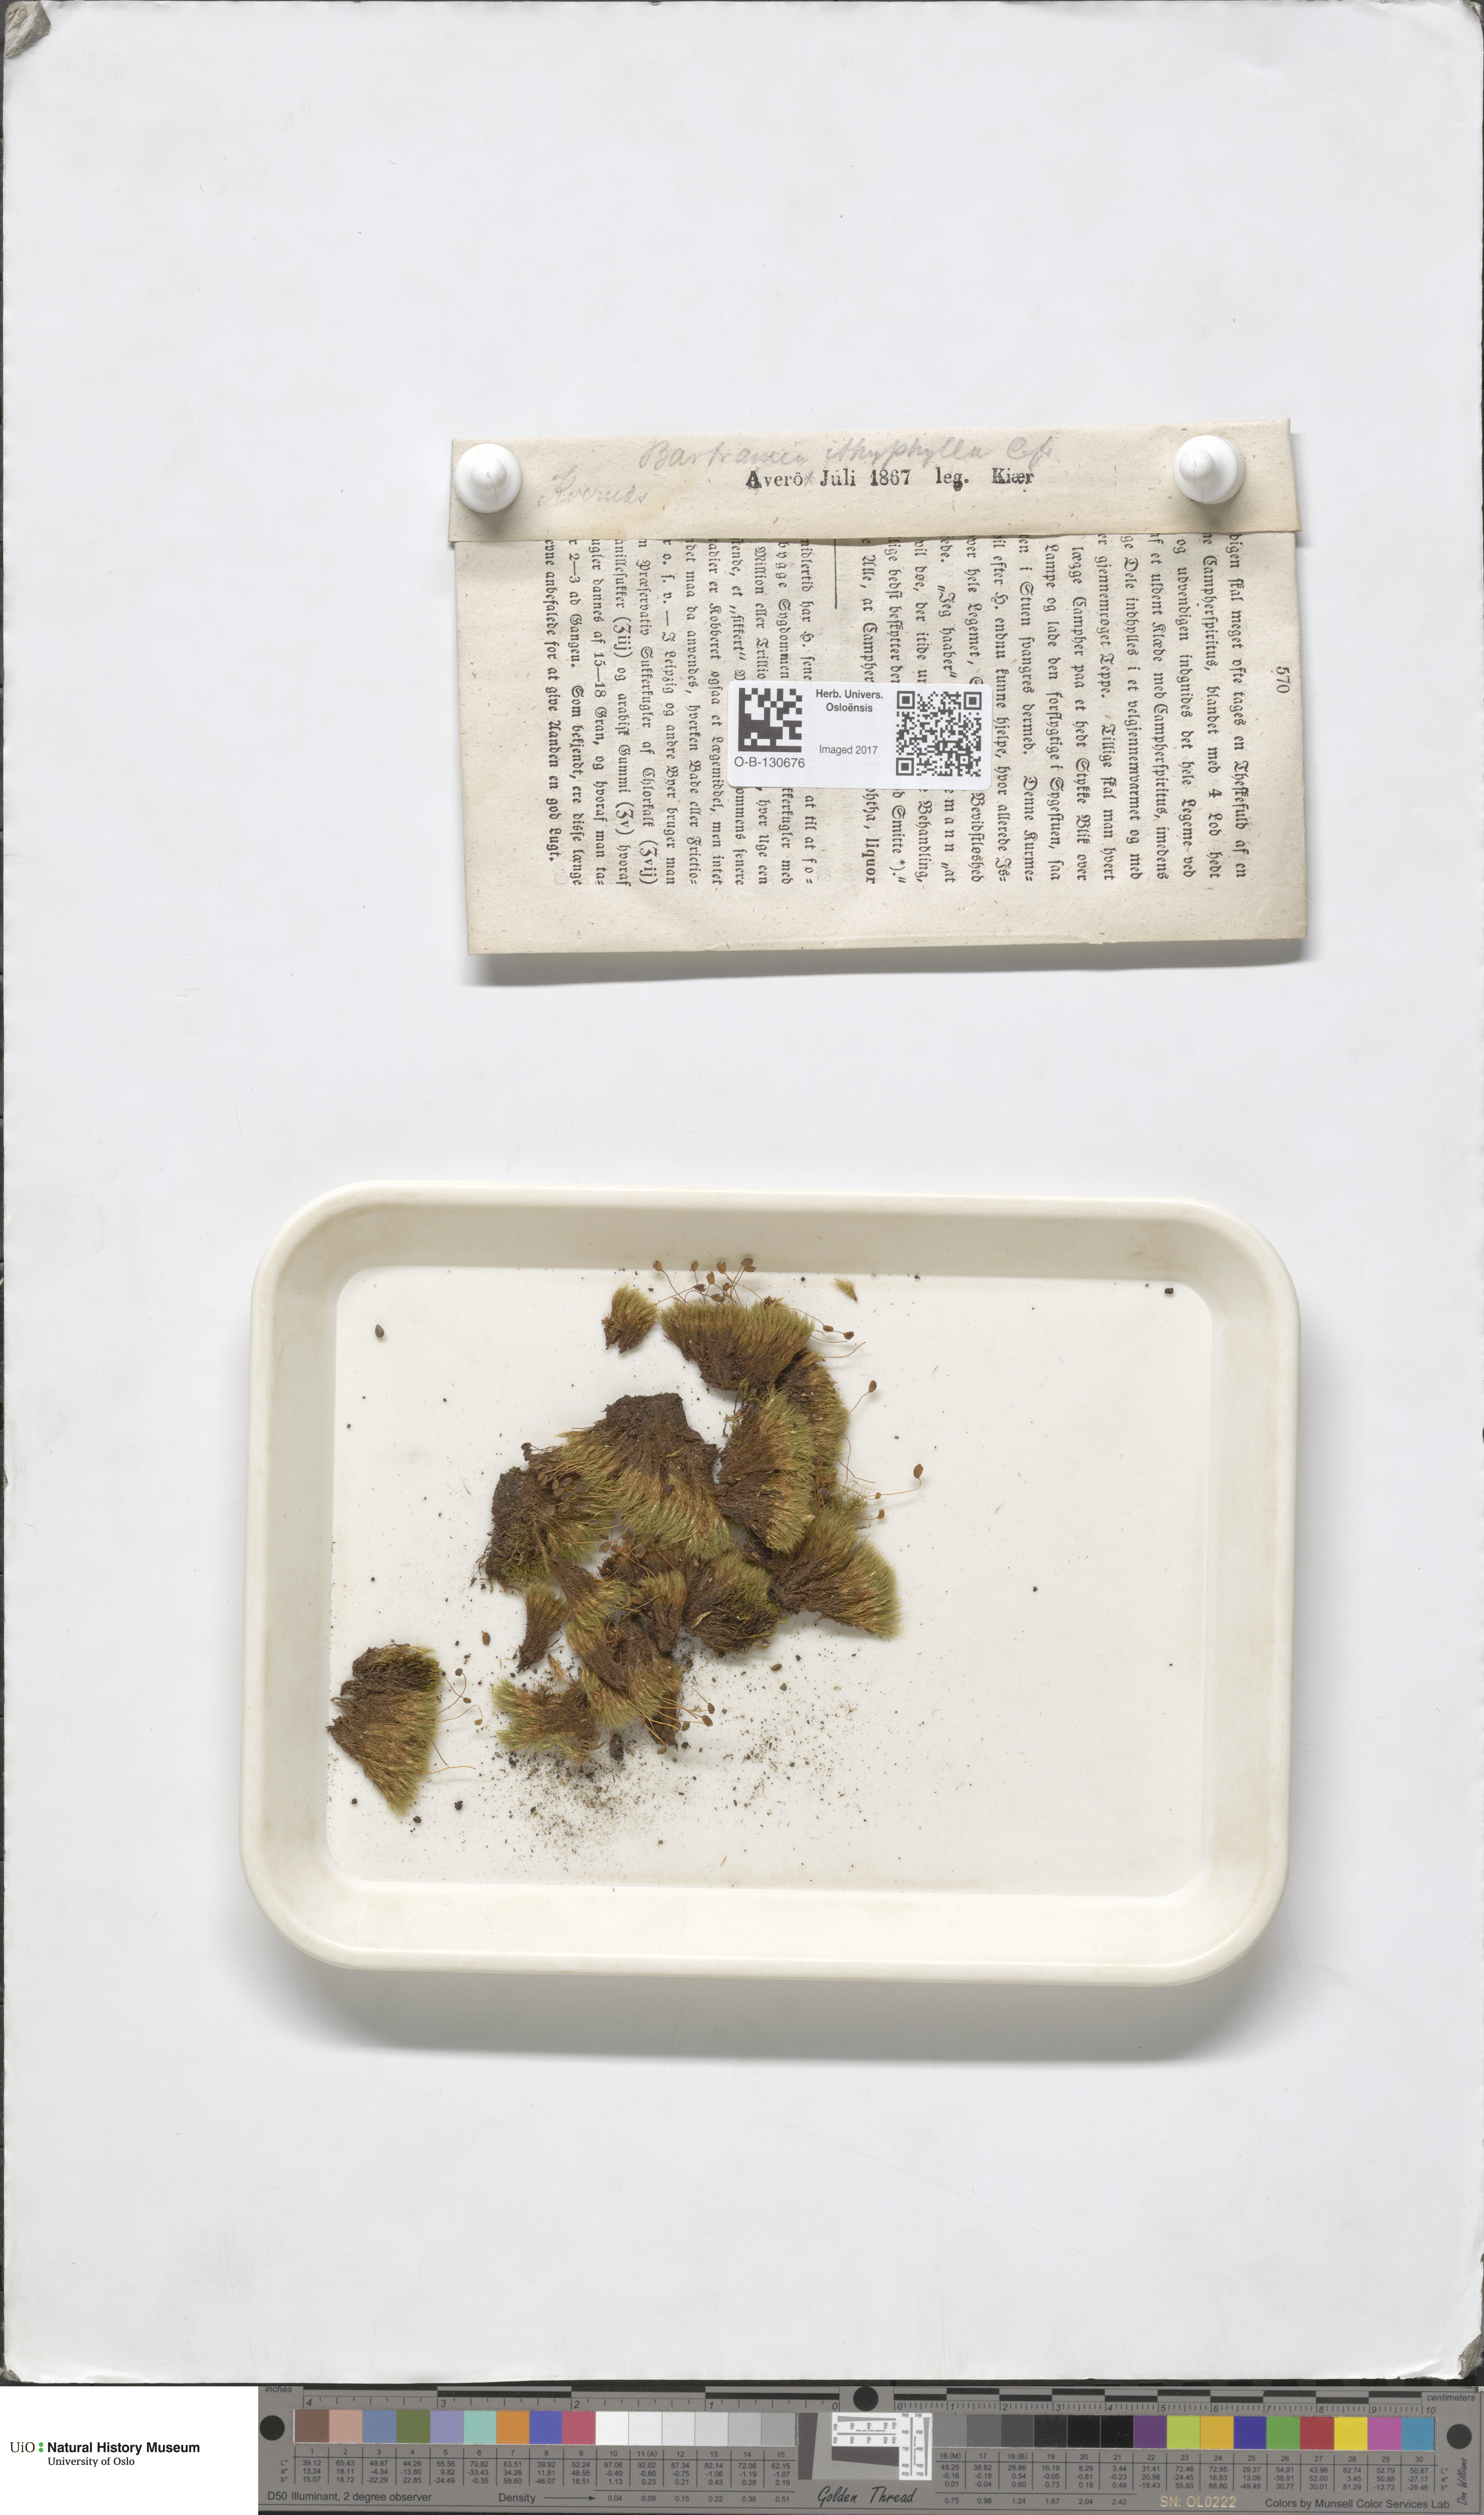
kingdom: Plantae
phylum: Bryophyta
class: Bryopsida
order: Bartramiales
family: Bartramiaceae
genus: Bartramia
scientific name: Bartramia ithyphylla
